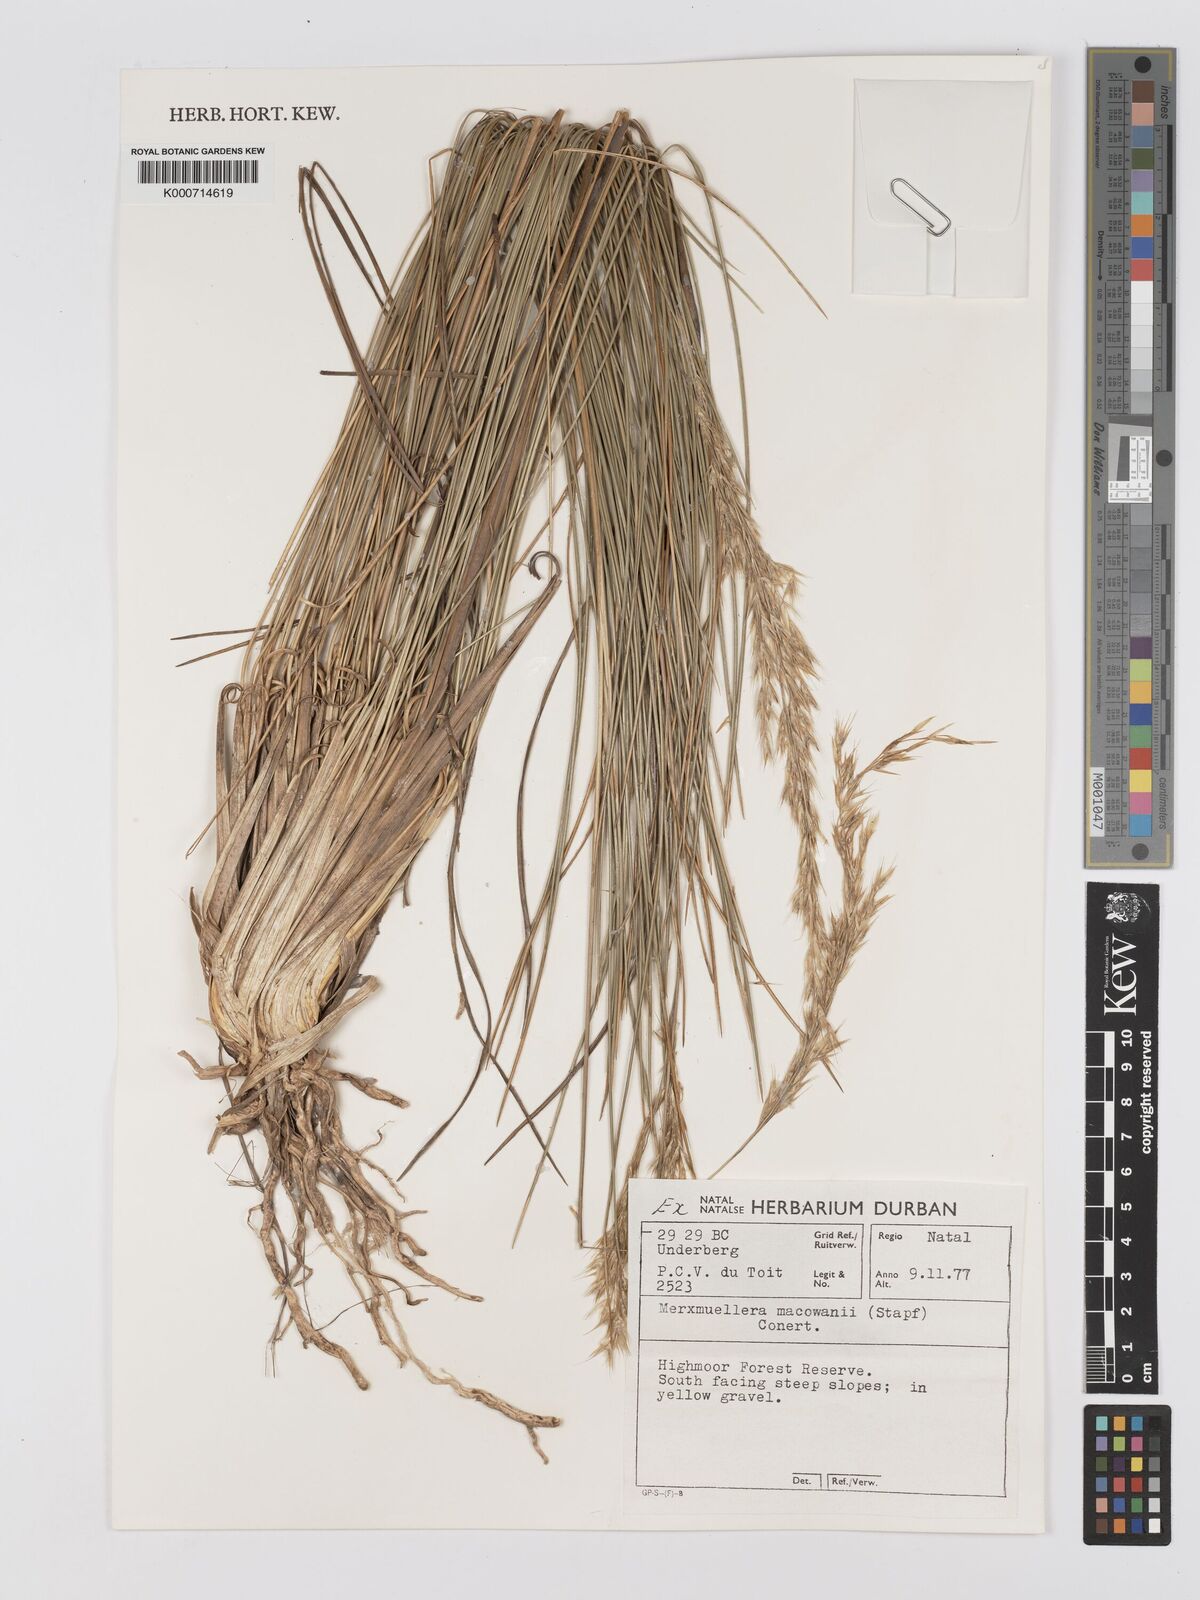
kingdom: Plantae
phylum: Tracheophyta
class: Liliopsida
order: Poales
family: Poaceae
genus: Rytidosperma
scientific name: Rytidosperma
